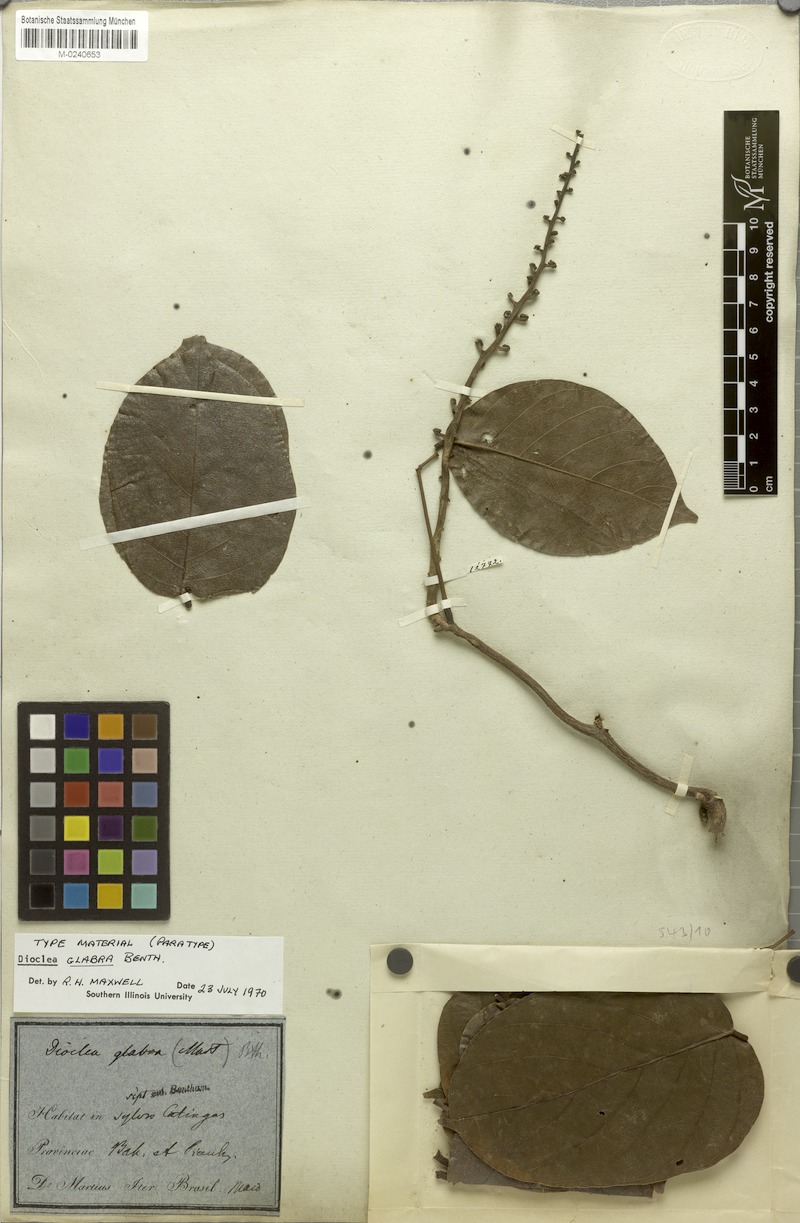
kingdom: Plantae
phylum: Tracheophyta
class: Magnoliopsida
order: Fabales
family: Fabaceae
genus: Macropsychanthus
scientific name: Macropsychanthus glaber
